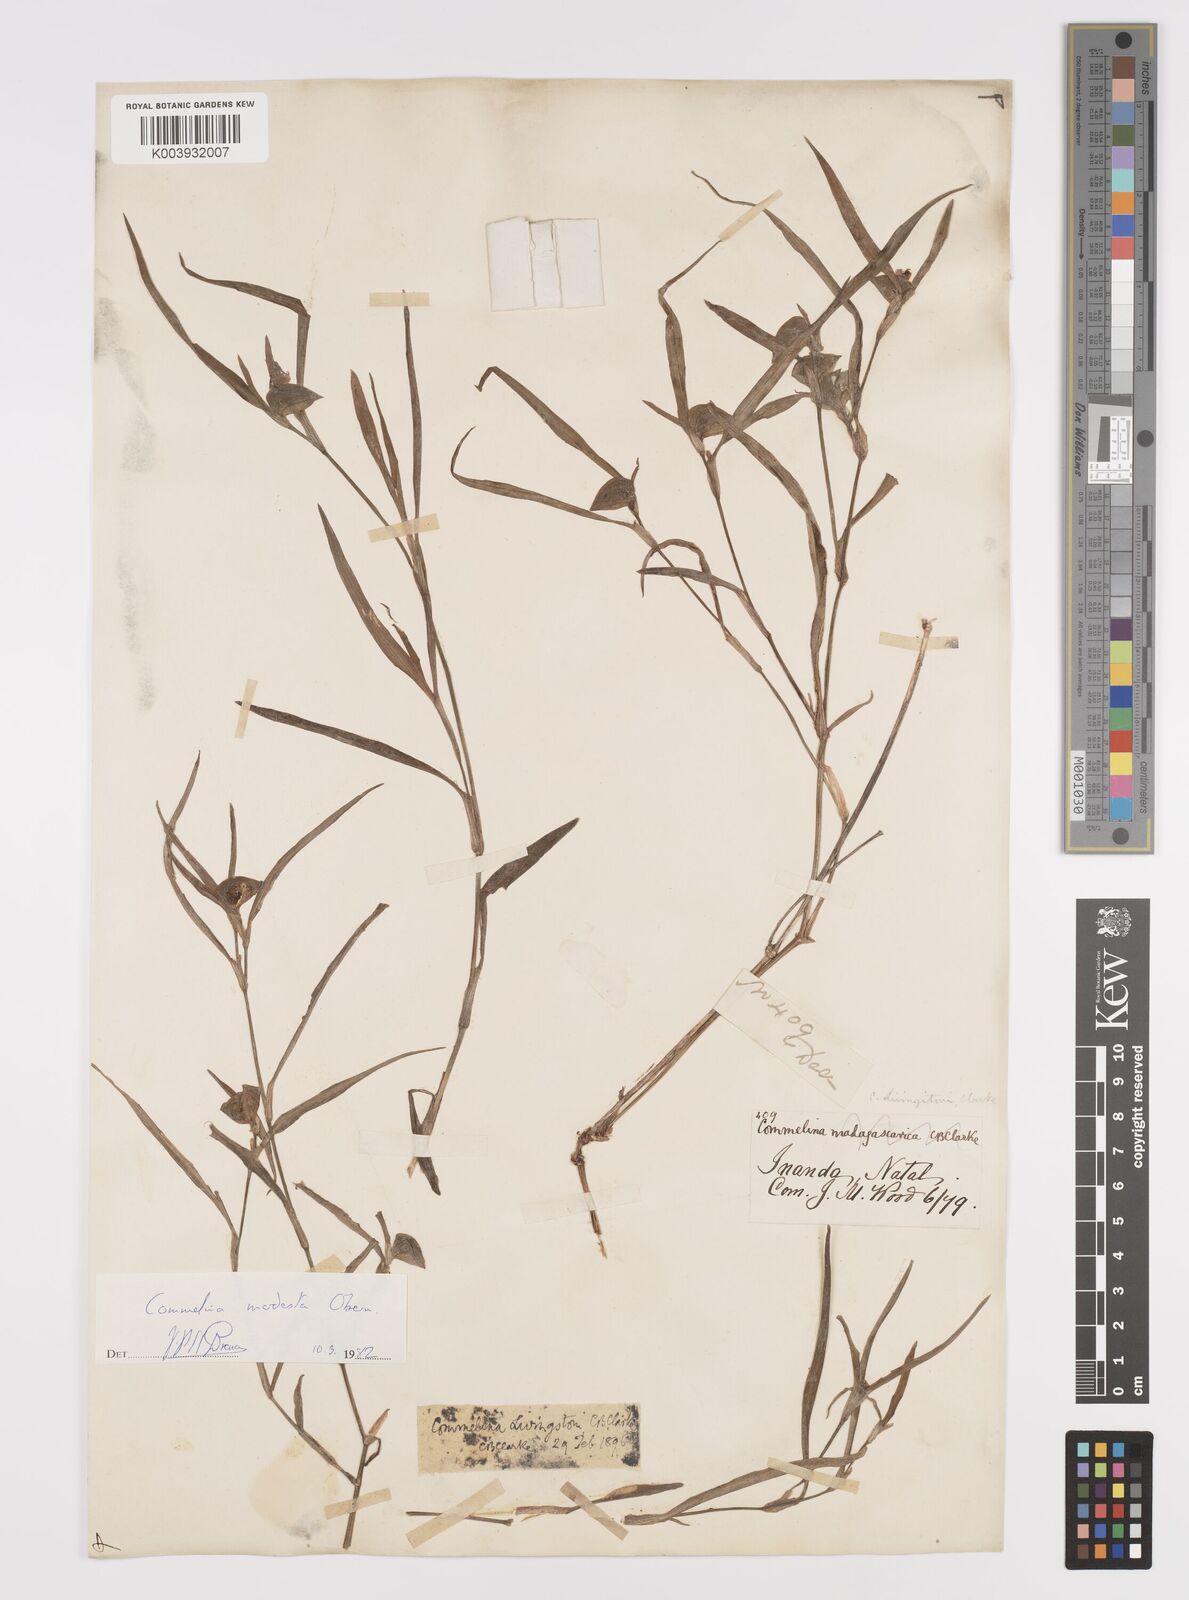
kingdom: Plantae
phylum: Tracheophyta
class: Liliopsida
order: Commelinales
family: Commelinaceae
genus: Commelina
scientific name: Commelina modesta
